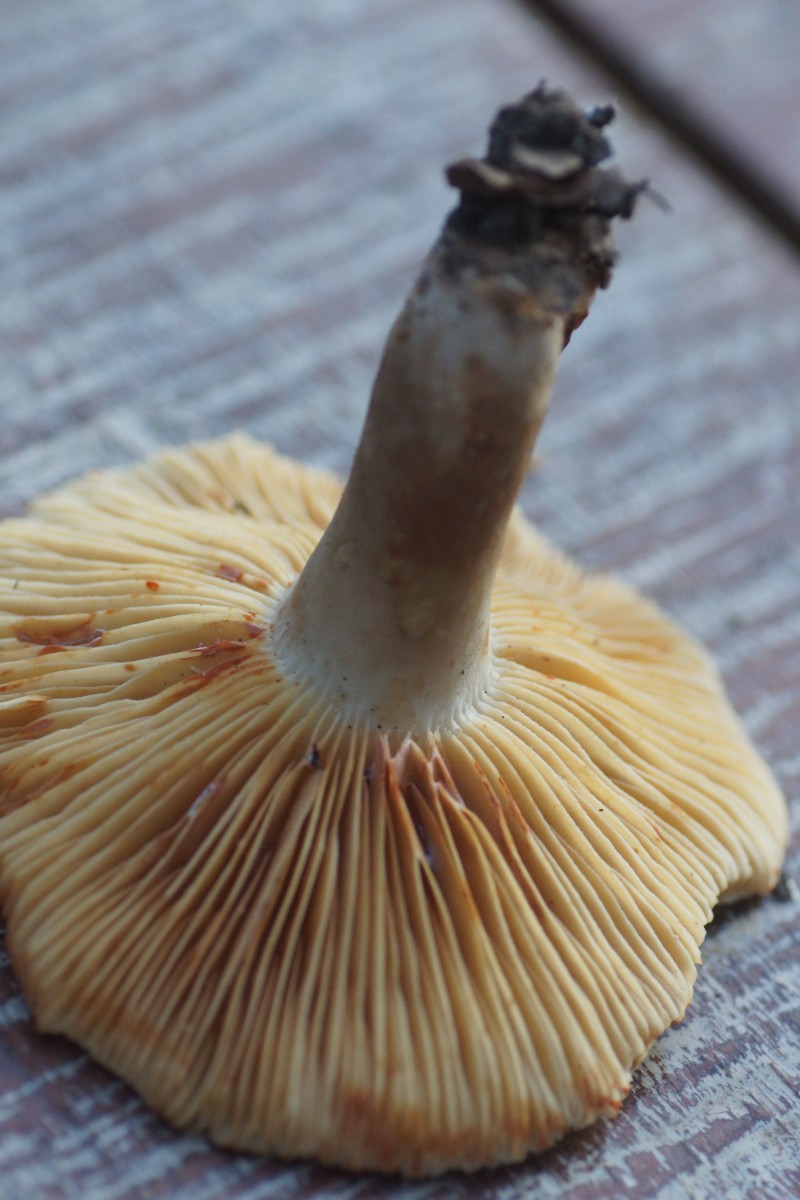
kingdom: Fungi
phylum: Basidiomycota
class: Agaricomycetes
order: Russulales
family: Russulaceae
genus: Lactarius
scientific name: Lactarius ruginosus
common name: gråbrun mælkehat
